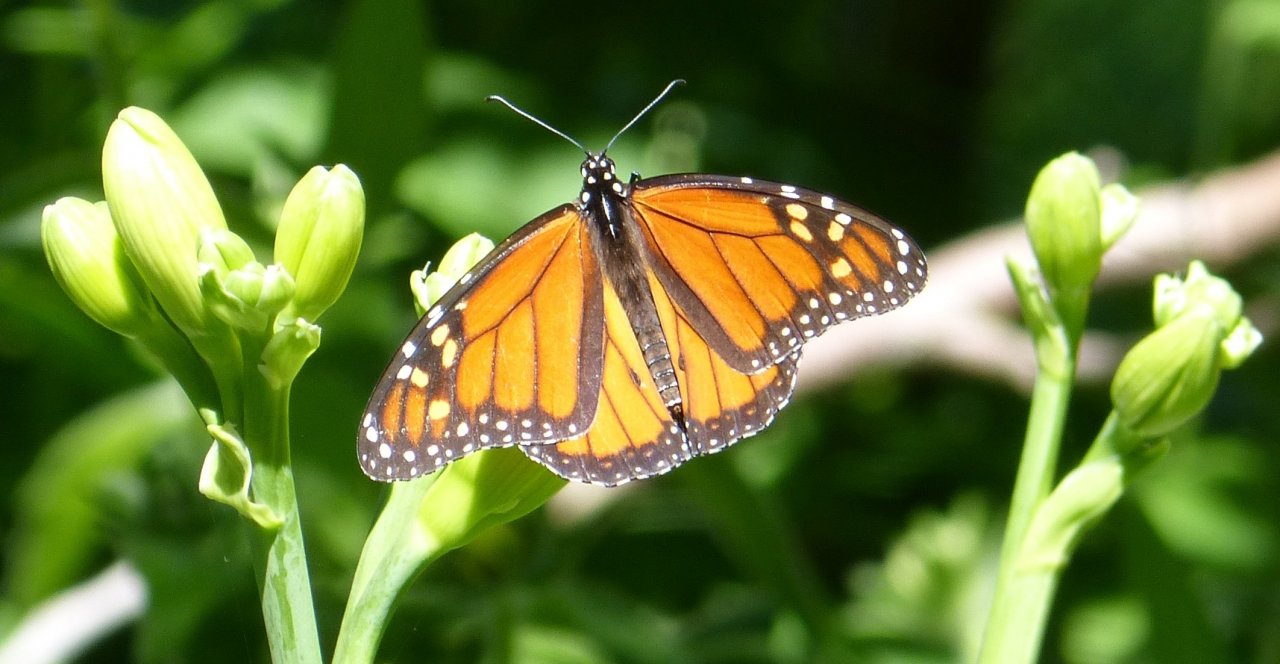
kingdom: Animalia
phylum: Arthropoda
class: Insecta
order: Lepidoptera
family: Nymphalidae
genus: Danaus
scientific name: Danaus plexippus
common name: Monarch
